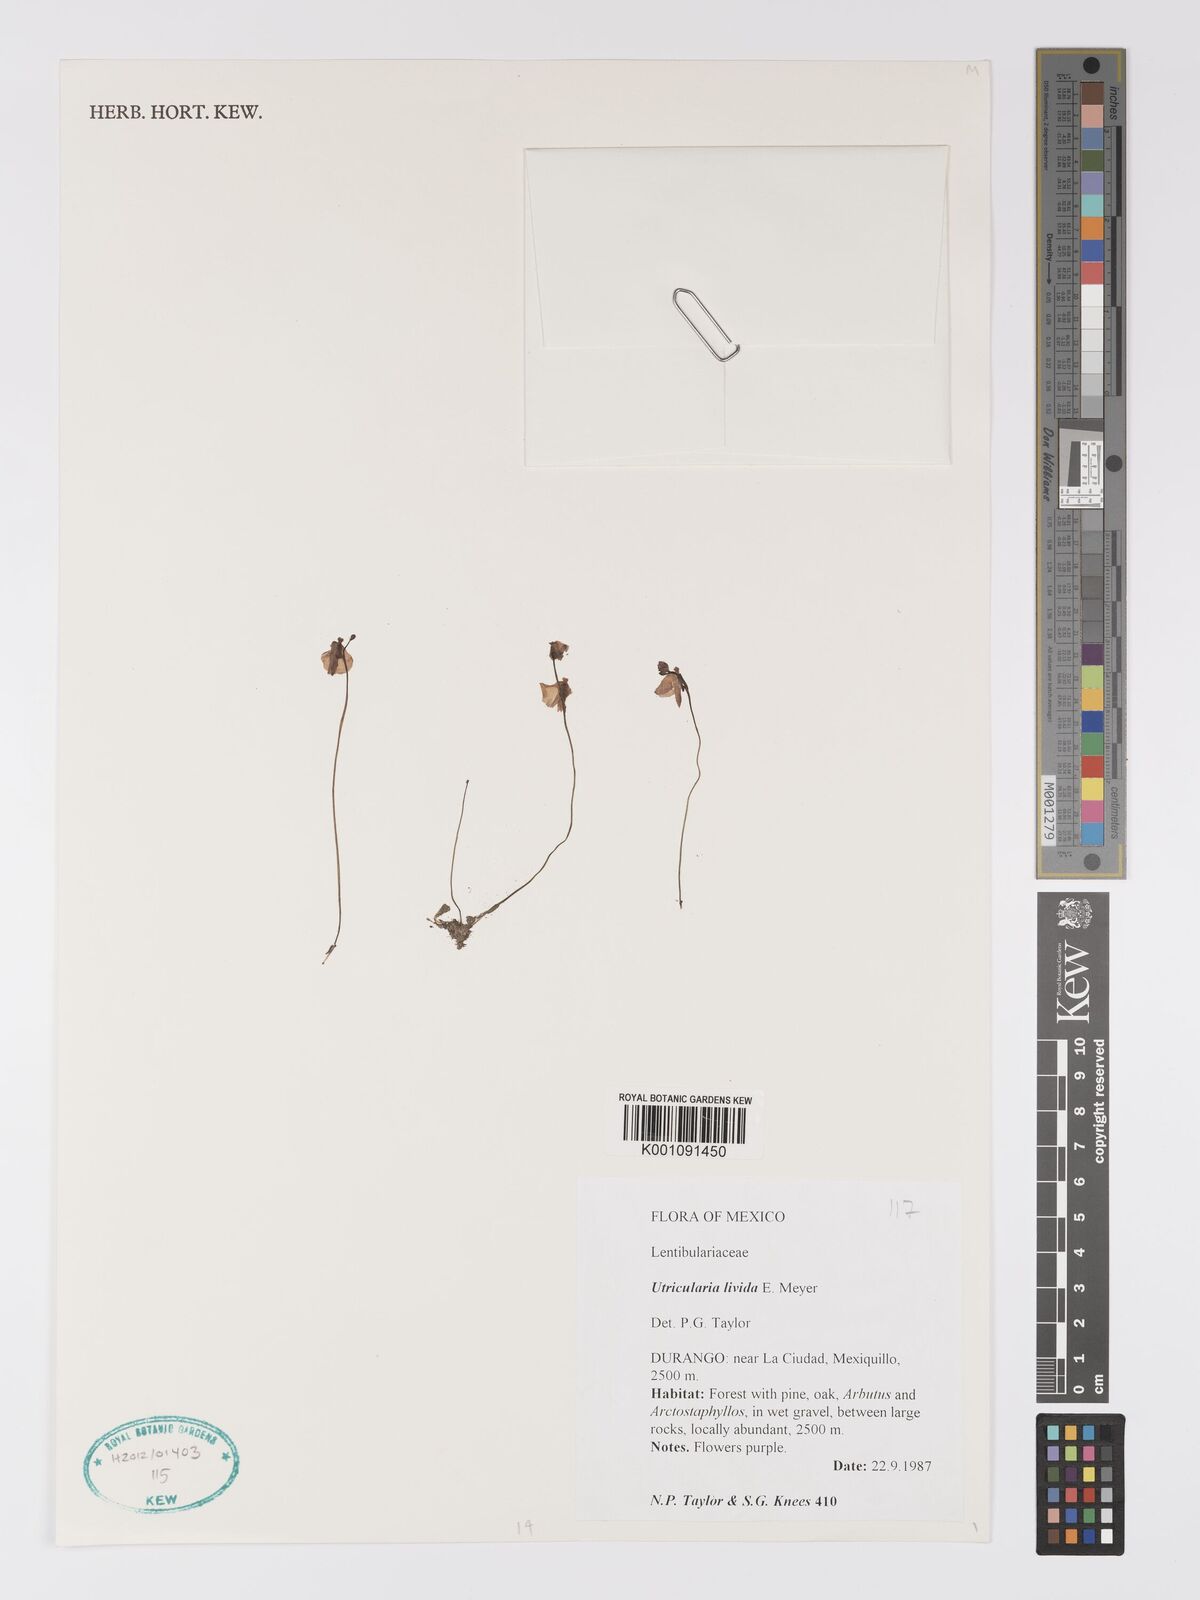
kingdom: Plantae
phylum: Tracheophyta
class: Magnoliopsida
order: Lamiales
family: Lentibulariaceae
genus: Utricularia
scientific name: Utricularia livida
